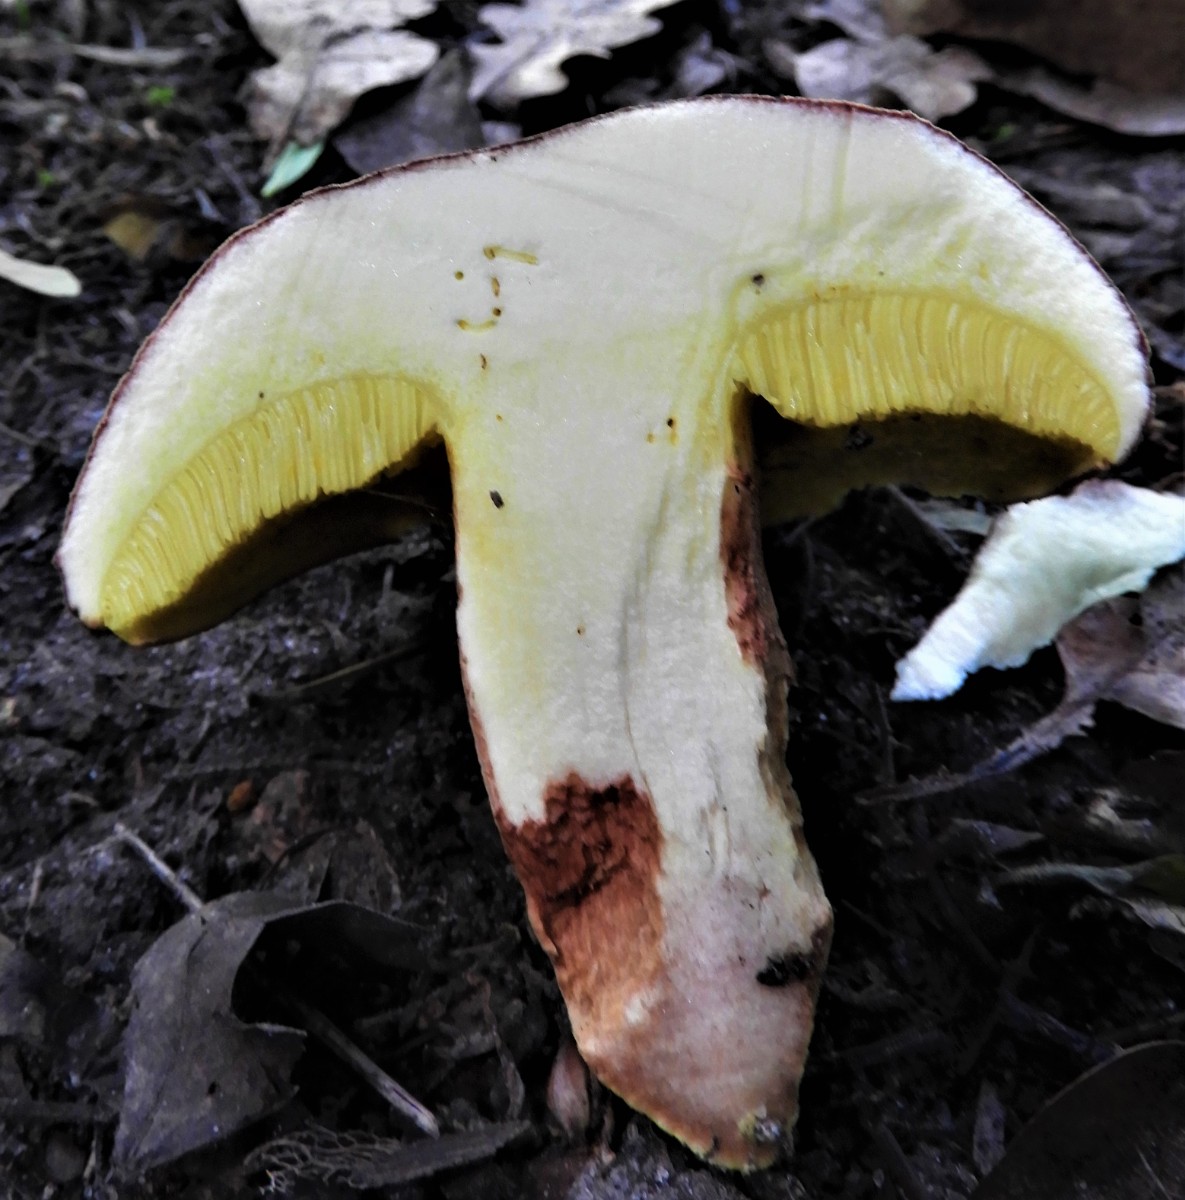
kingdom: Fungi
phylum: Basidiomycota
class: Agaricomycetes
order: Boletales
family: Boletaceae
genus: Xerocomus
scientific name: Xerocomus subtomentosus
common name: filtet rørhat
